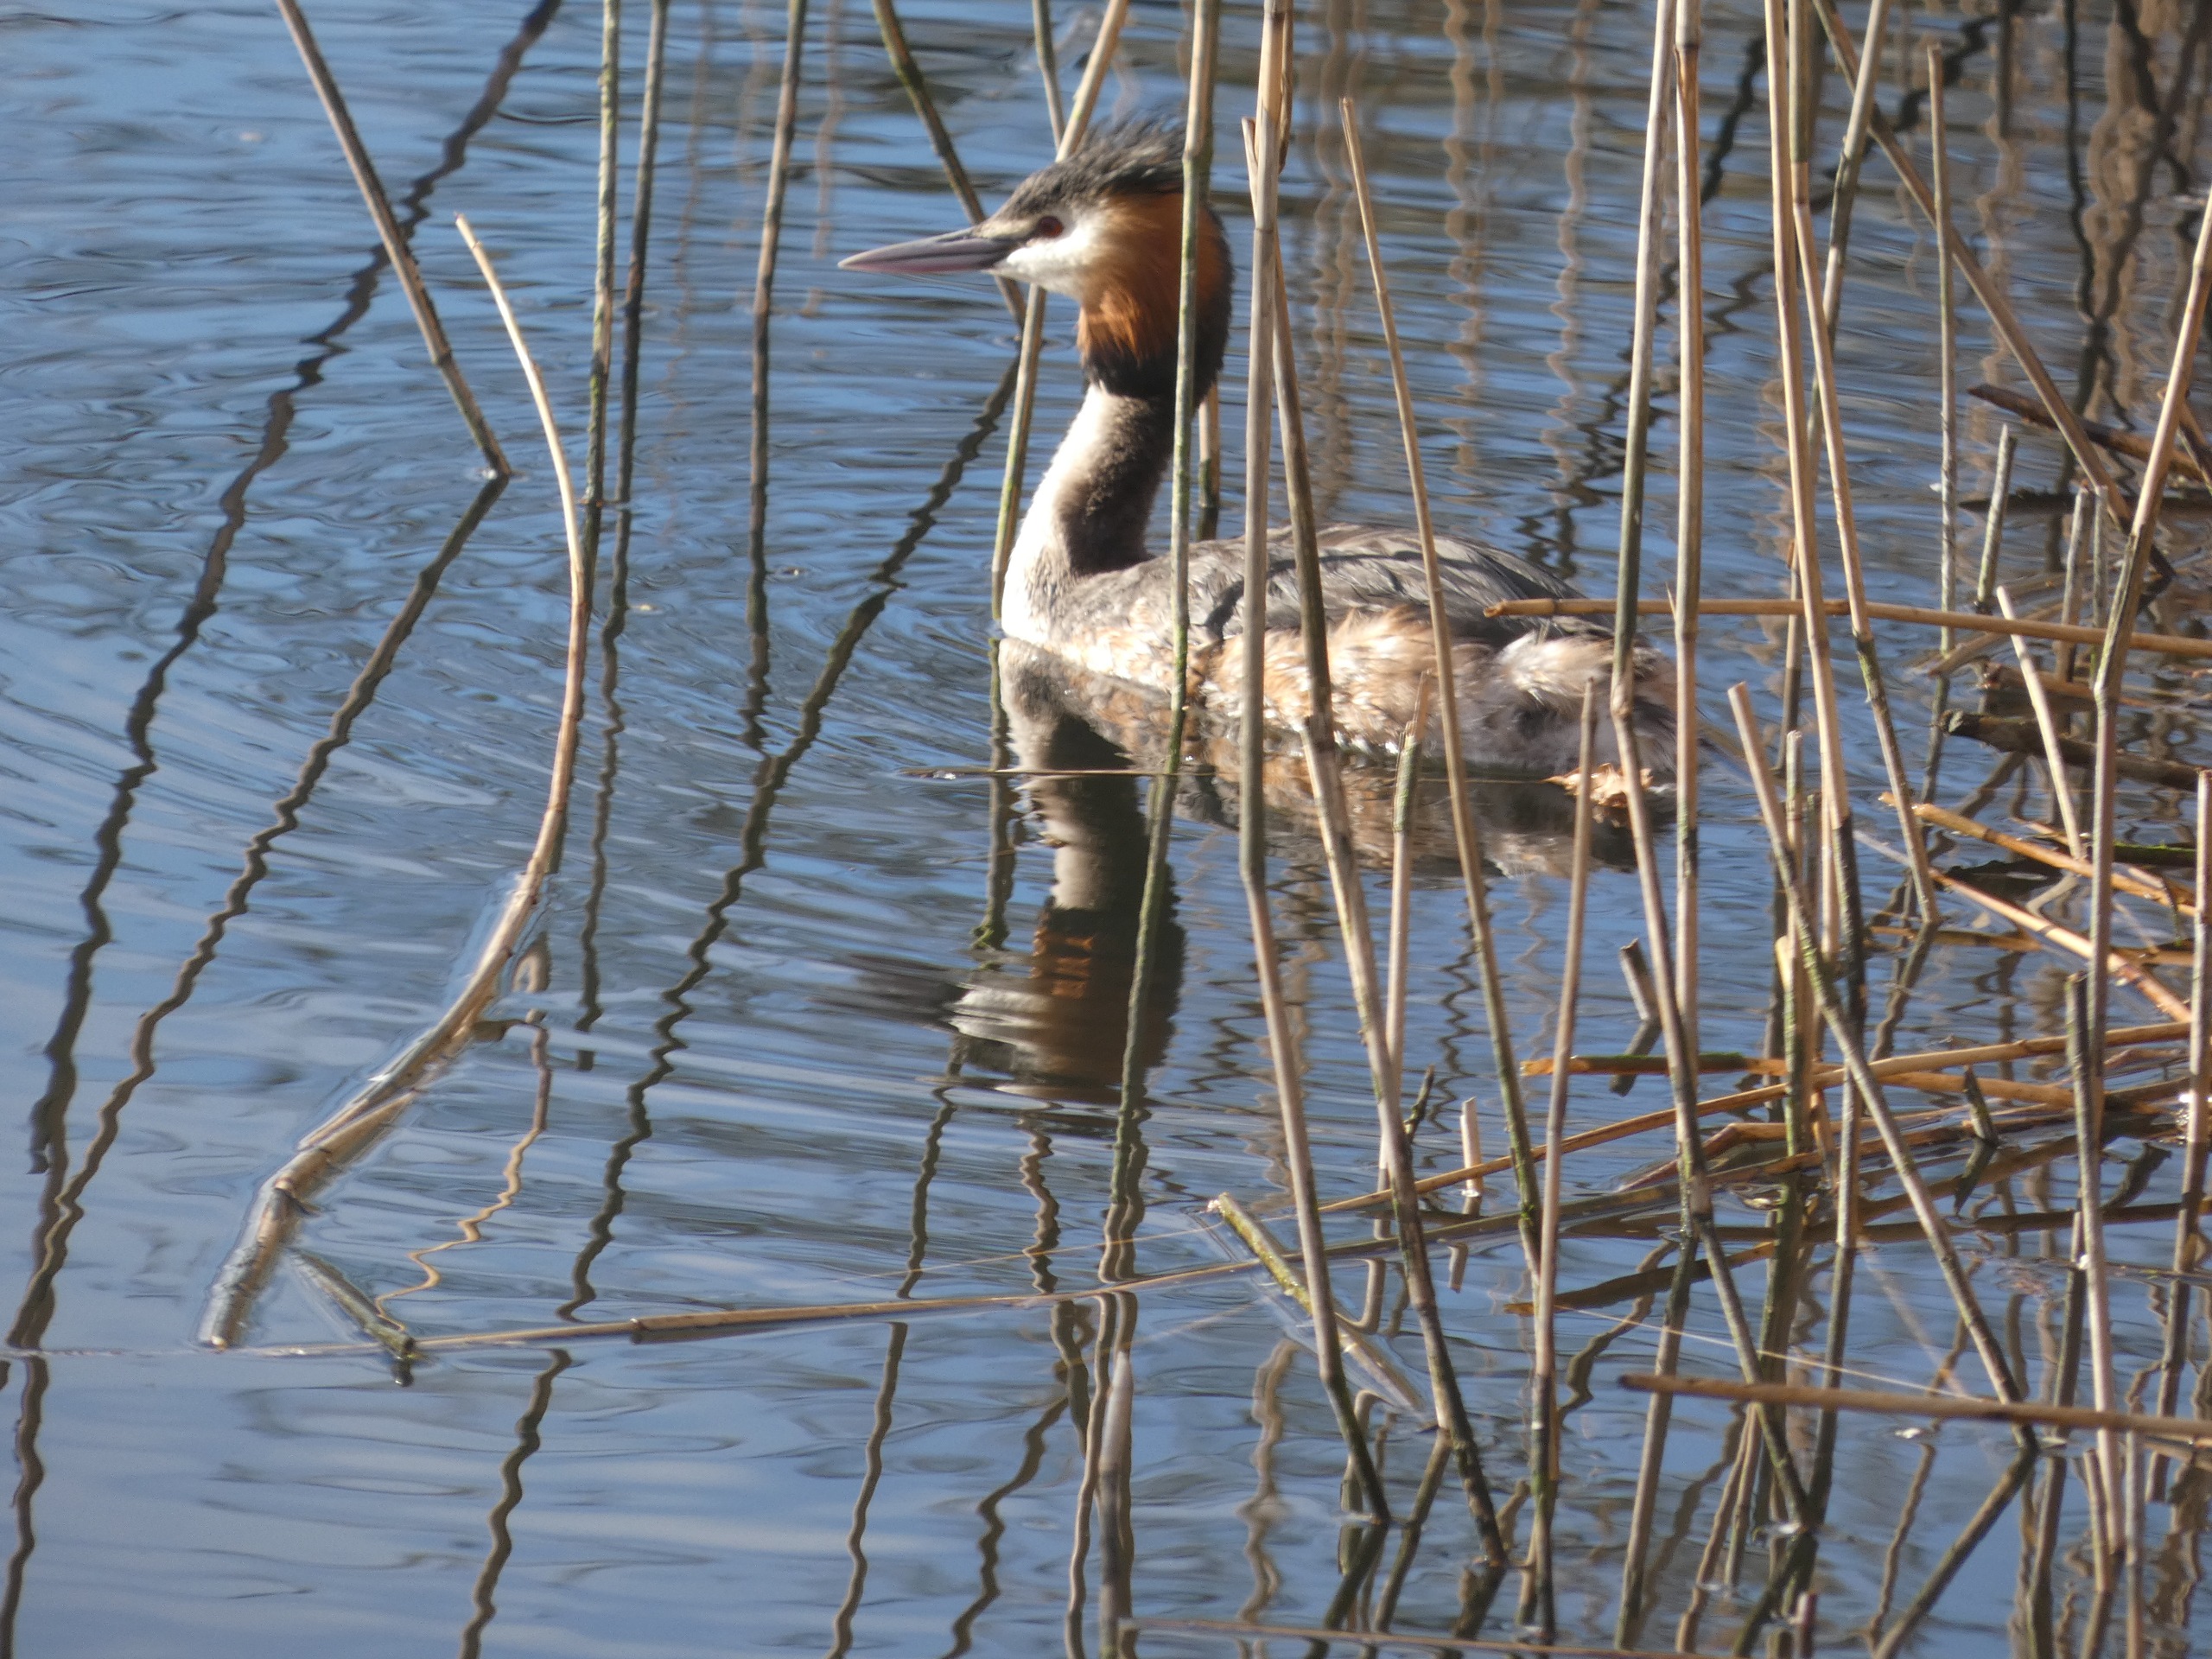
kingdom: Animalia
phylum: Chordata
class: Aves
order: Podicipediformes
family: Podicipedidae
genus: Podiceps
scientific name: Podiceps cristatus
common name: Toppet lappedykker
